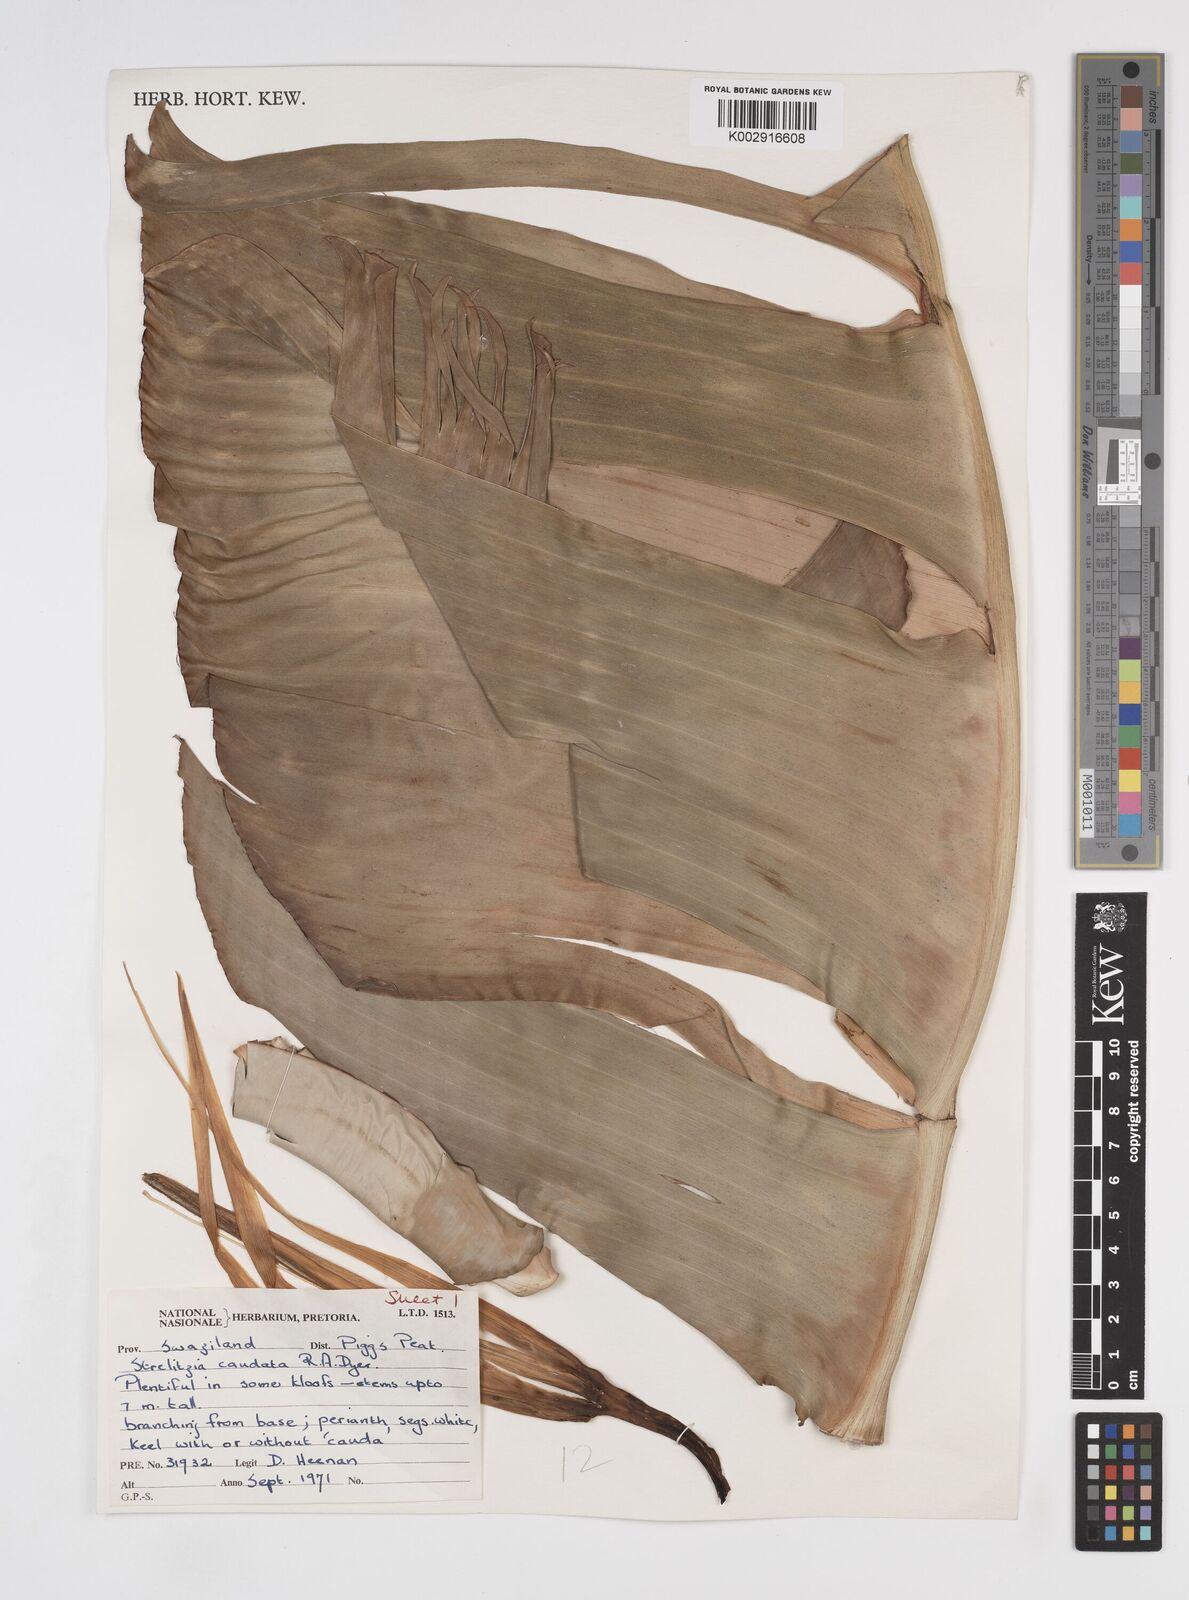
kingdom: Plantae
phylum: Tracheophyta
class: Liliopsida
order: Zingiberales
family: Strelitziaceae
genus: Strelitzia
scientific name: Strelitzia caudata
